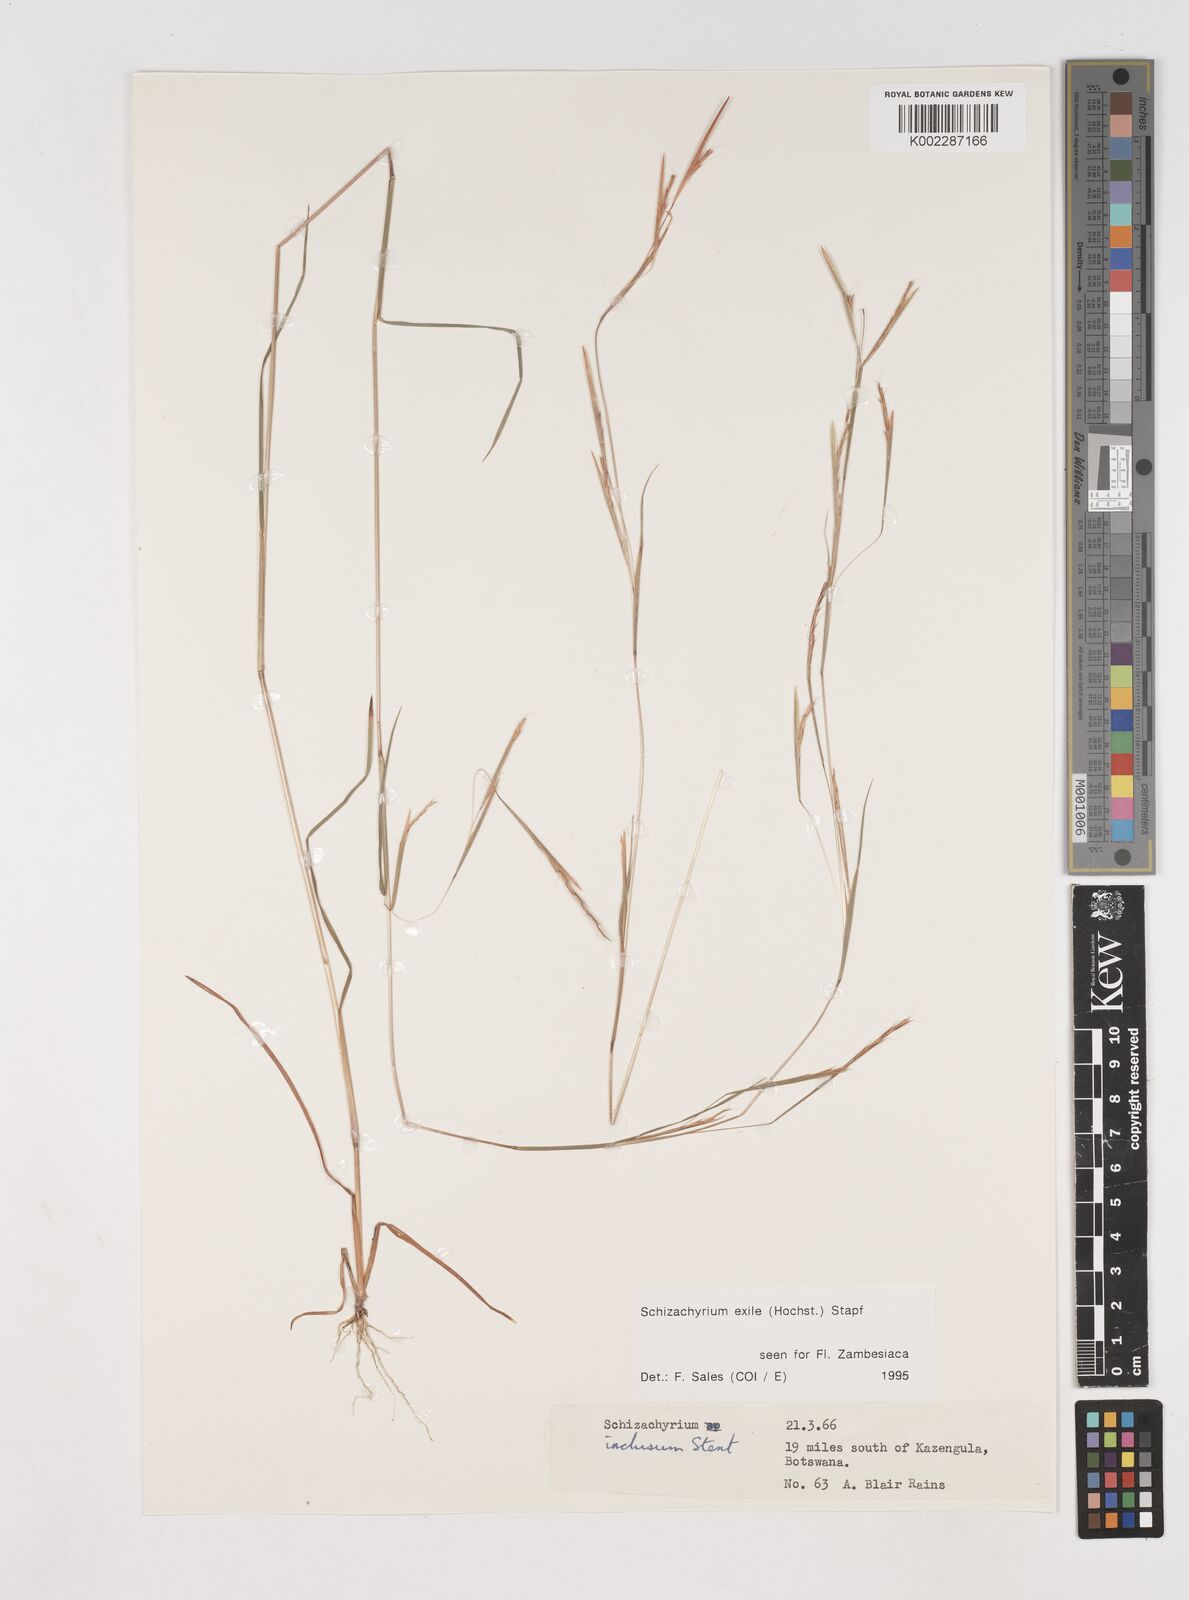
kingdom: Plantae
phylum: Tracheophyta
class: Liliopsida
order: Poales
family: Poaceae
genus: Schizachyrium
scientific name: Schizachyrium exile
